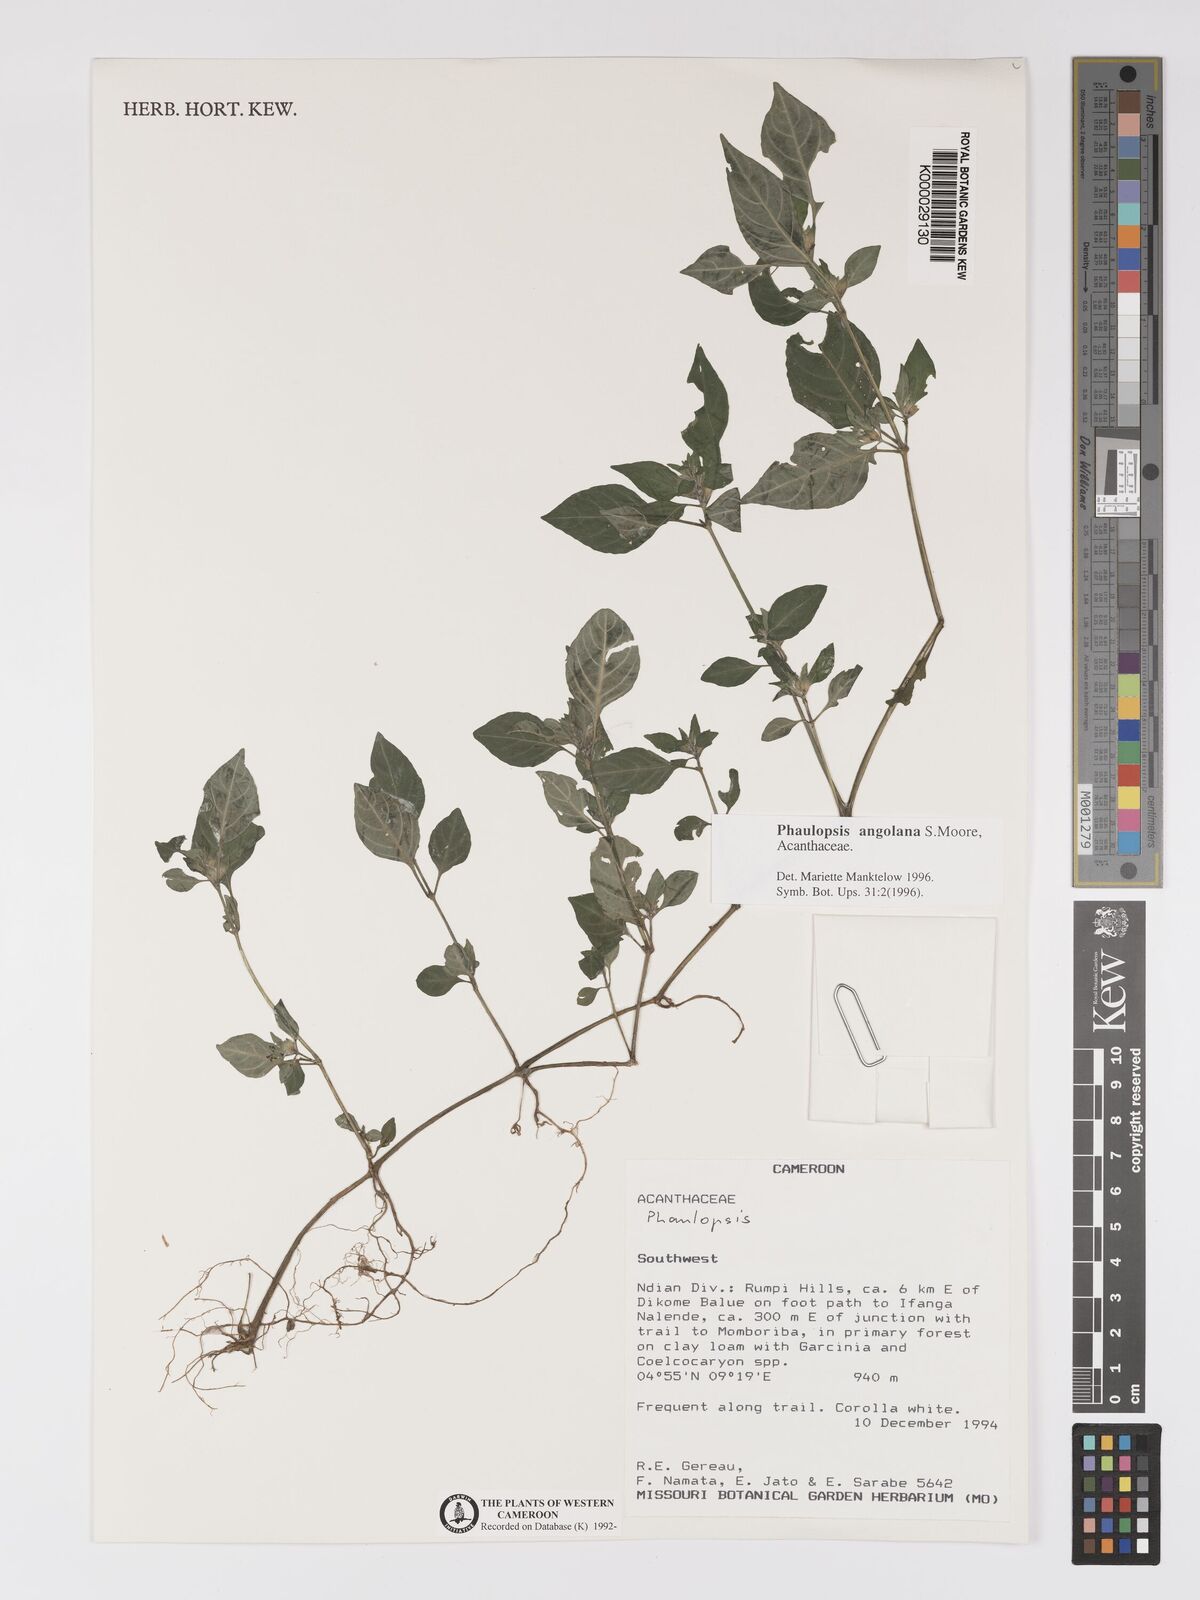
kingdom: Plantae
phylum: Tracheophyta
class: Magnoliopsida
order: Lamiales
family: Acanthaceae
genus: Phaulopsis
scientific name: Phaulopsis angolana
